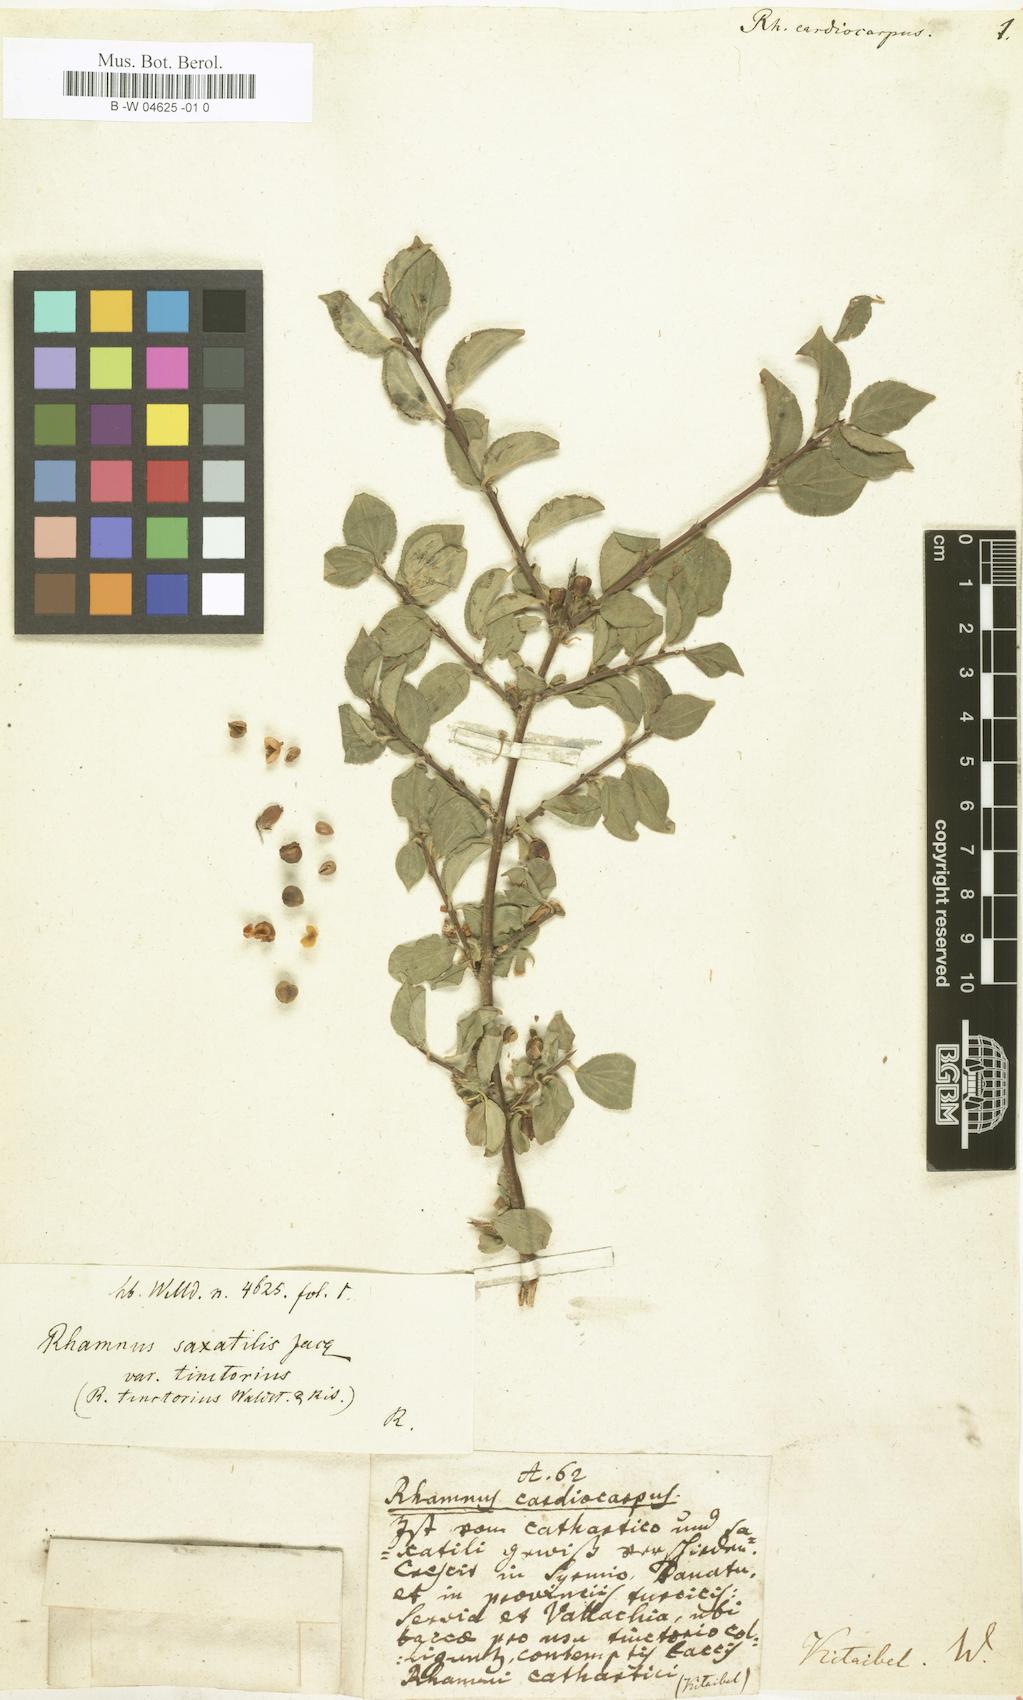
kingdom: Plantae
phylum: Tracheophyta
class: Magnoliopsida
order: Rosales
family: Rhamnaceae
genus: Rhamnus
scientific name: Rhamnus saxatilis
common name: Rock buckthorn
